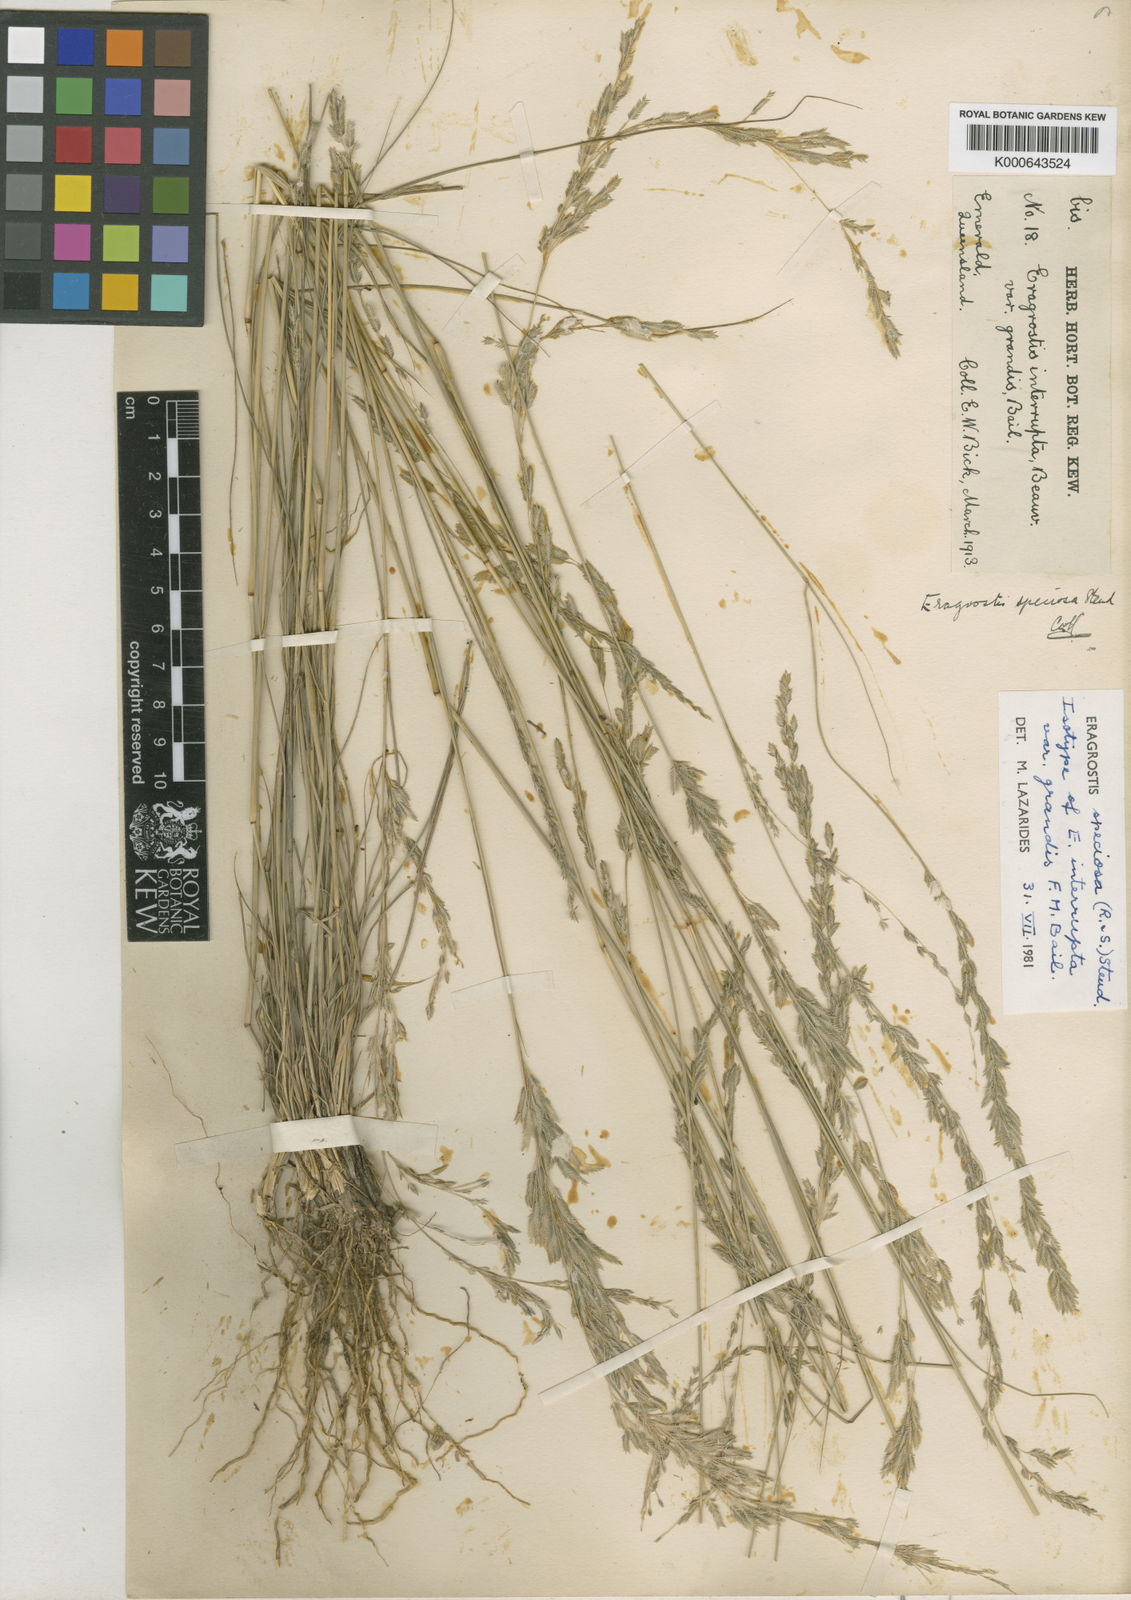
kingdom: Plantae
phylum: Tracheophyta
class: Liliopsida
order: Poales
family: Poaceae
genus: Eragrostis
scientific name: Eragrostis speciosa
